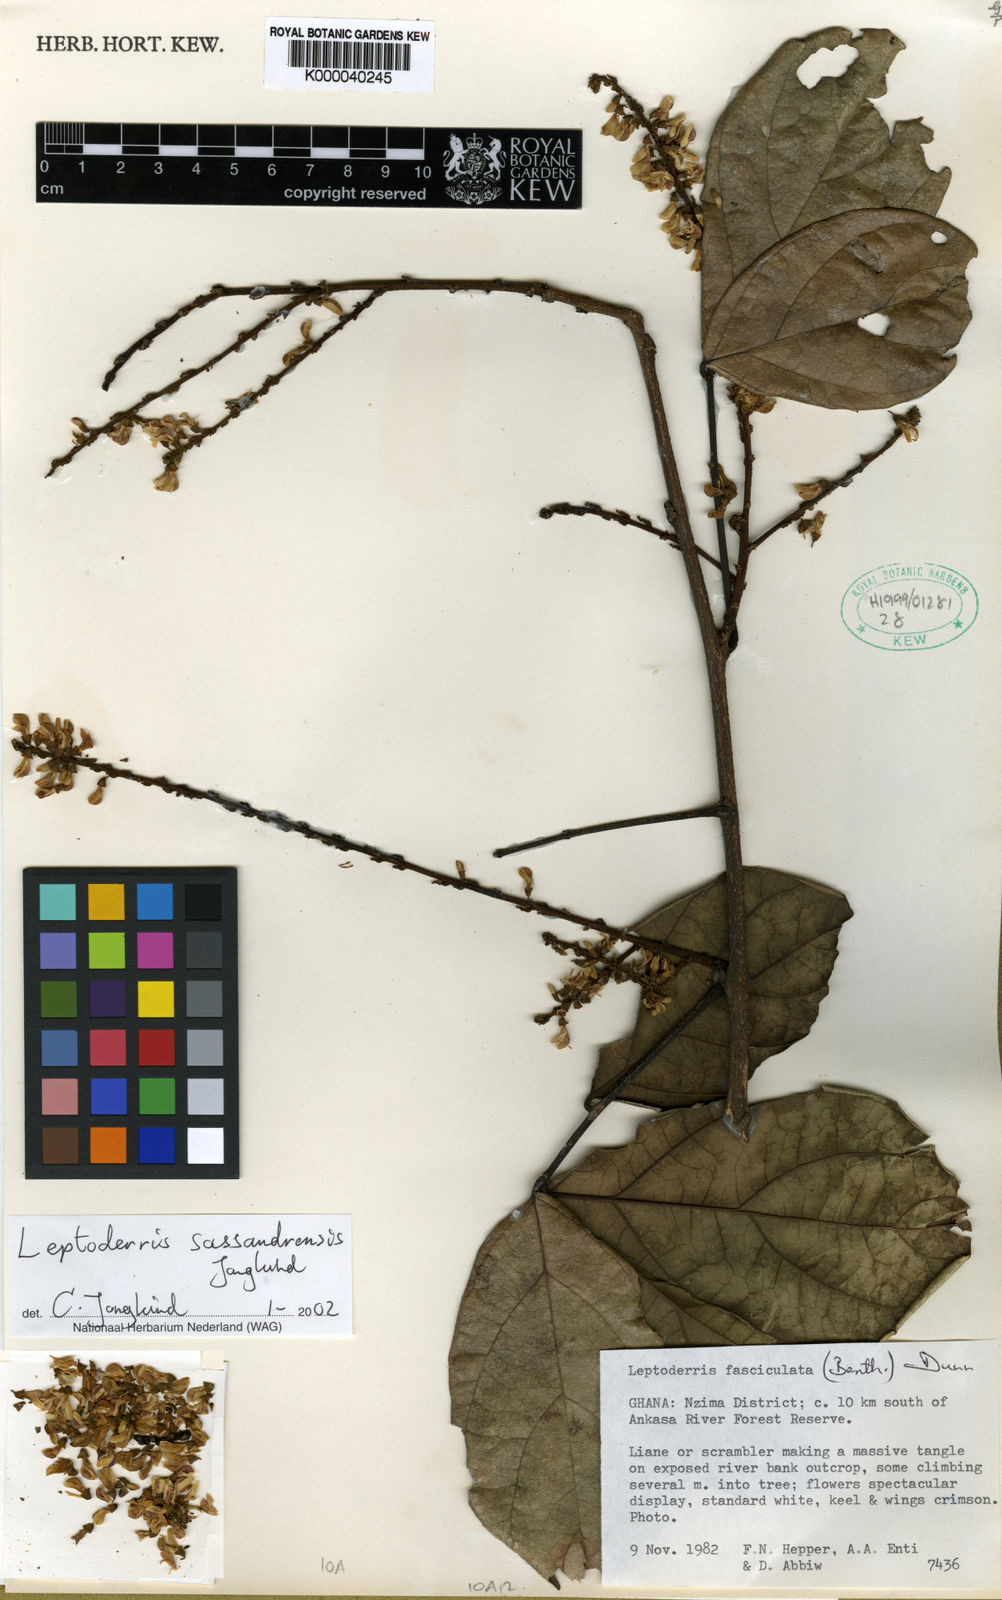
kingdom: Plantae
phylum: Tracheophyta
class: Magnoliopsida
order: Fabales
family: Fabaceae
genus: Leptoderris
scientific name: Leptoderris fasciculata
